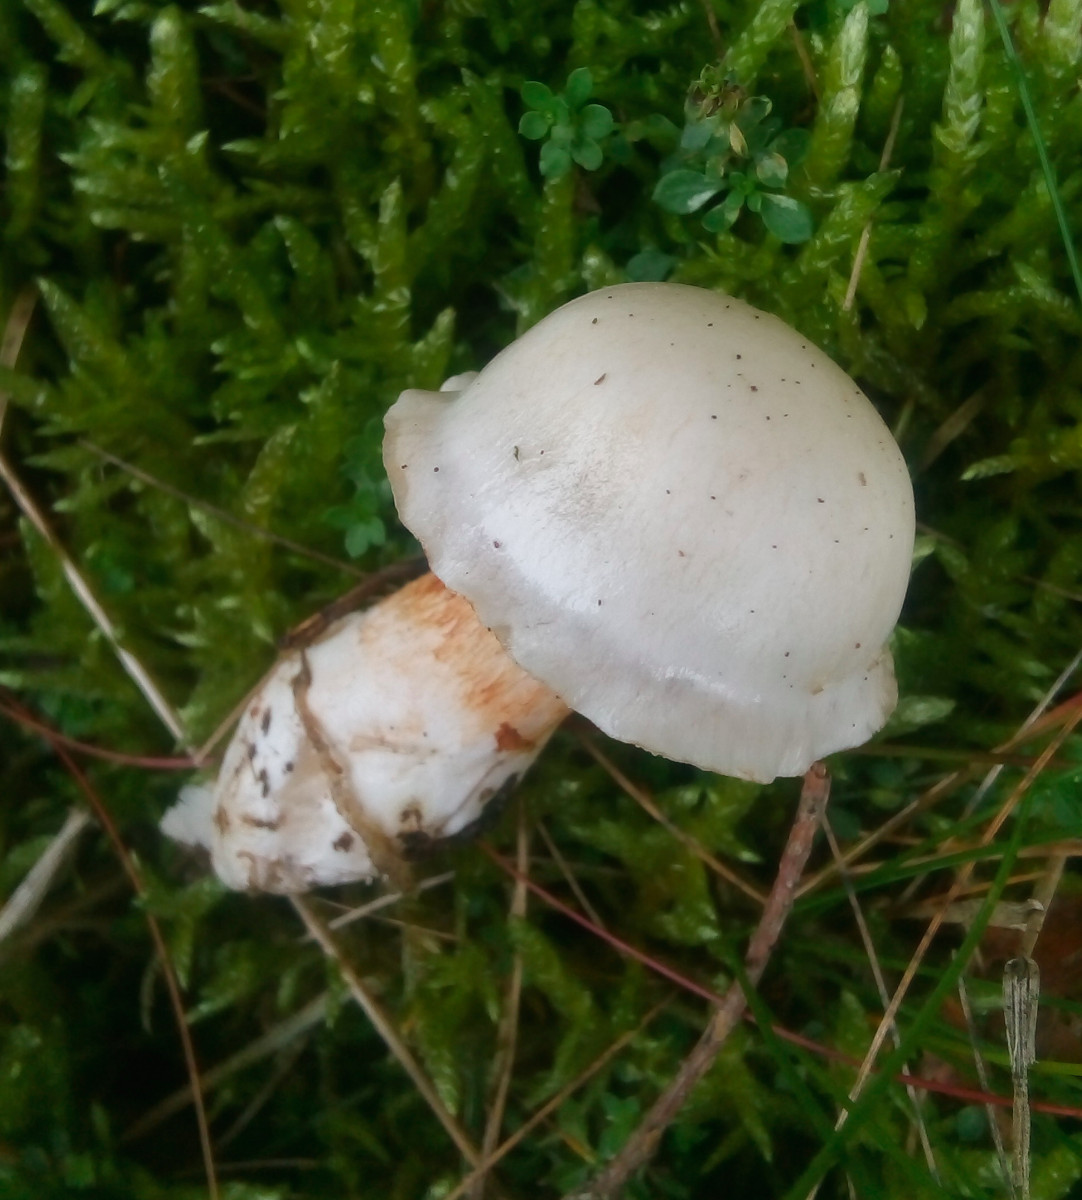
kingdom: Fungi
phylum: Basidiomycota
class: Agaricomycetes
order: Agaricales
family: Cortinariaceae
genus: Thaxterogaster
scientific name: Thaxterogaster alboamarescens
